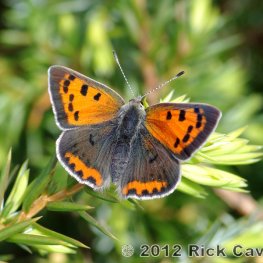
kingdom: Animalia
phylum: Arthropoda
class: Insecta
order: Lepidoptera
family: Lycaenidae
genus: Lycaena
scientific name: Lycaena phlaeas
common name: American Copper
